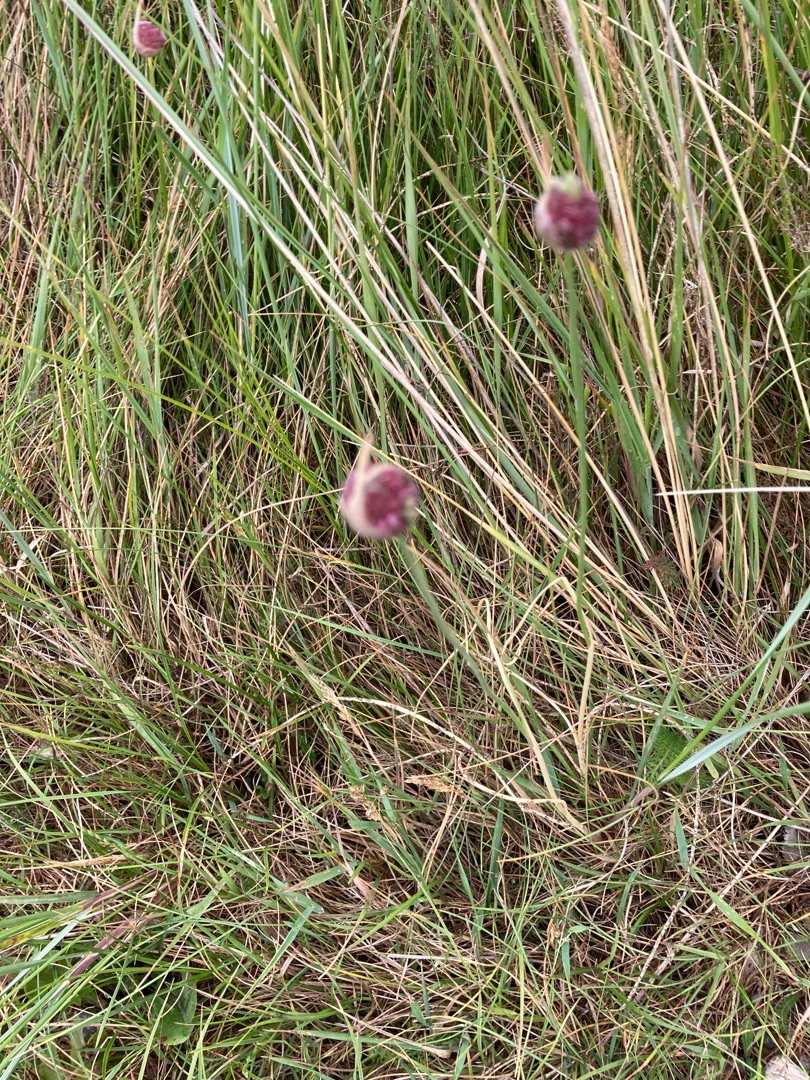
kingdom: Plantae
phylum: Tracheophyta
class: Liliopsida
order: Asparagales
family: Amaryllidaceae
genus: Allium
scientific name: Allium vineale
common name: Sand-løg
